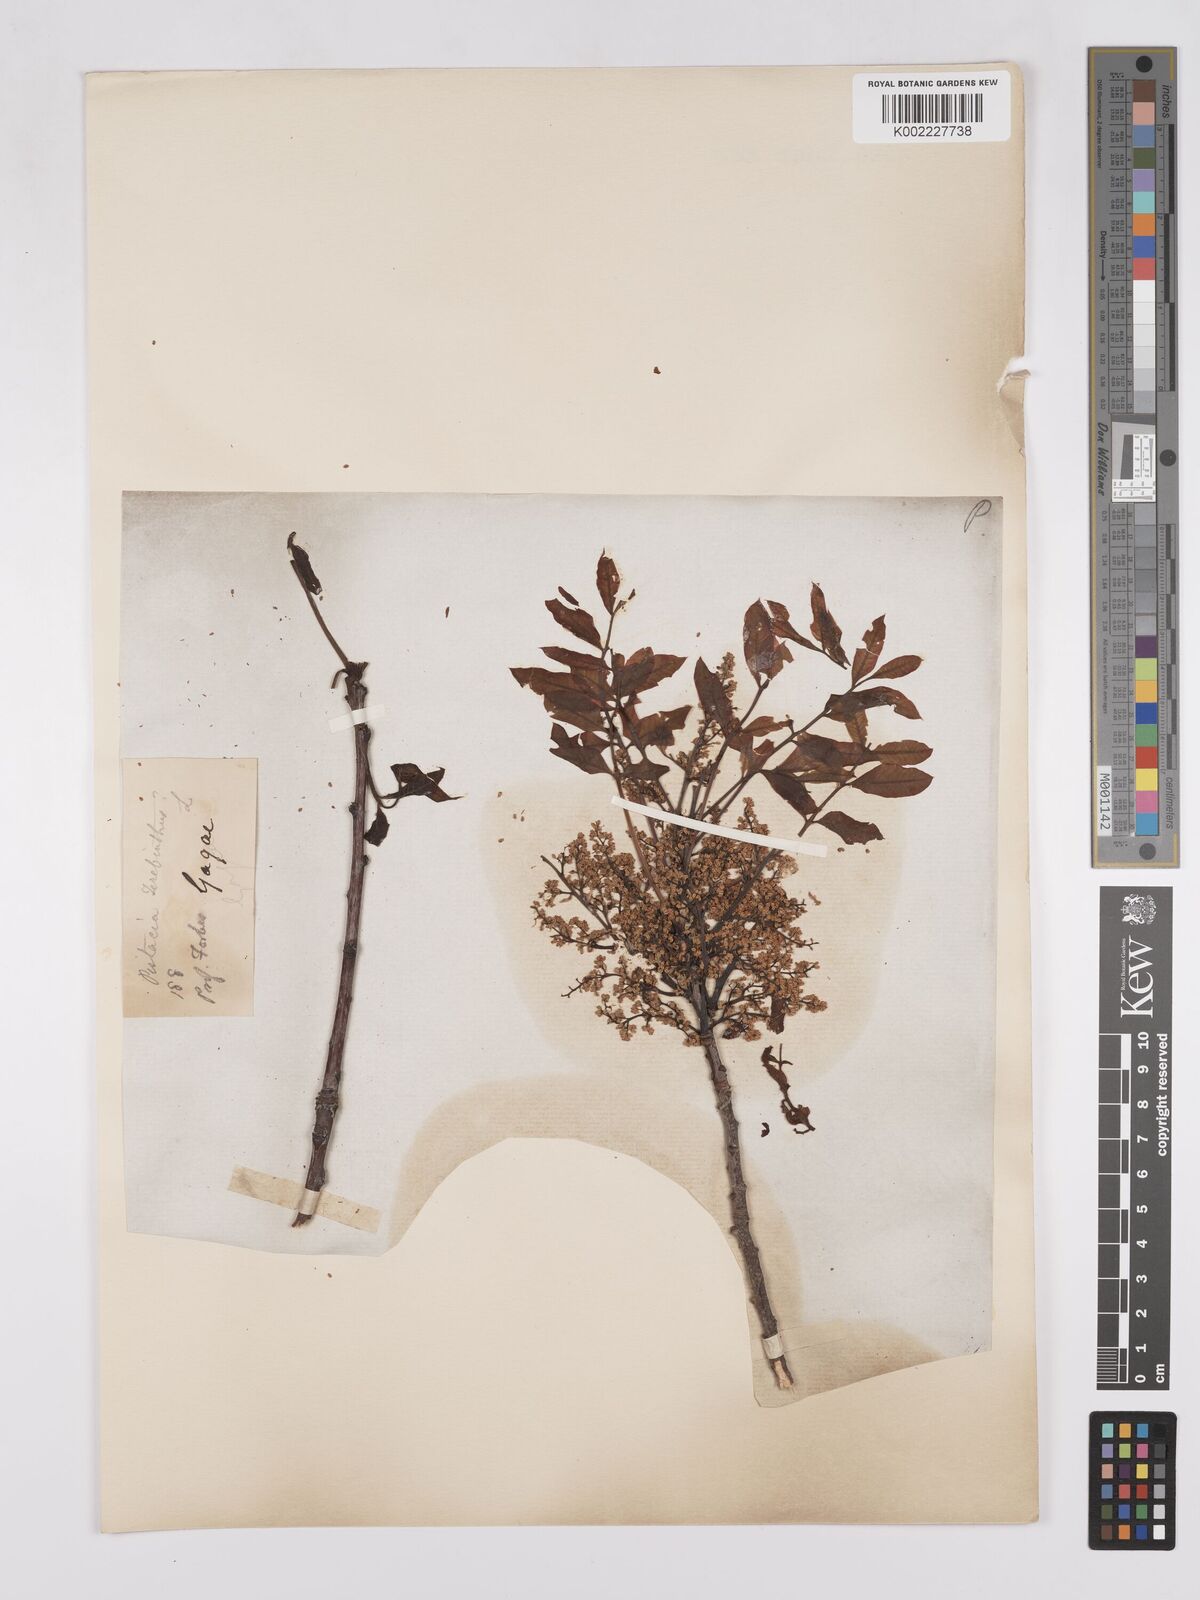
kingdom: Plantae
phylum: Tracheophyta
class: Magnoliopsida
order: Sapindales
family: Anacardiaceae
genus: Pistacia
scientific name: Pistacia terebinthus
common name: Terebinth
